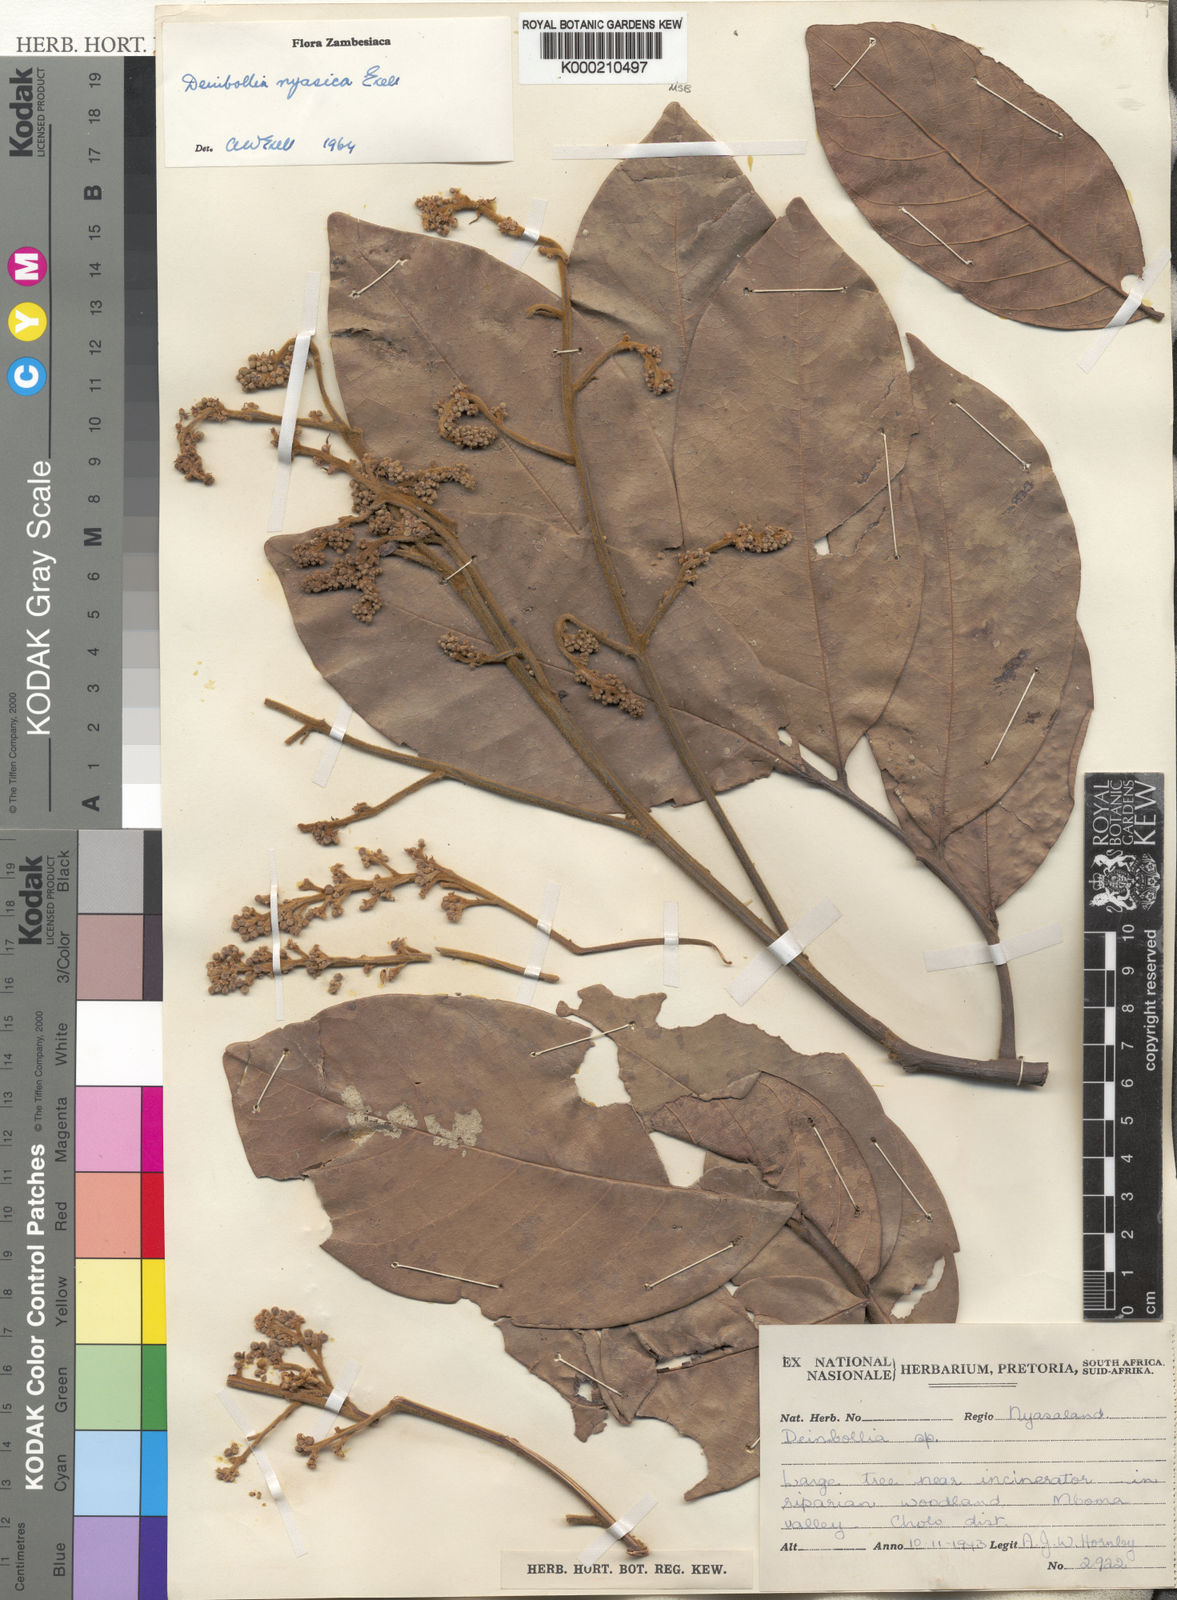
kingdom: Plantae
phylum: Tracheophyta
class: Magnoliopsida
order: Sapindales
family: Sapindaceae
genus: Deinbollia
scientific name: Deinbollia nyasica
